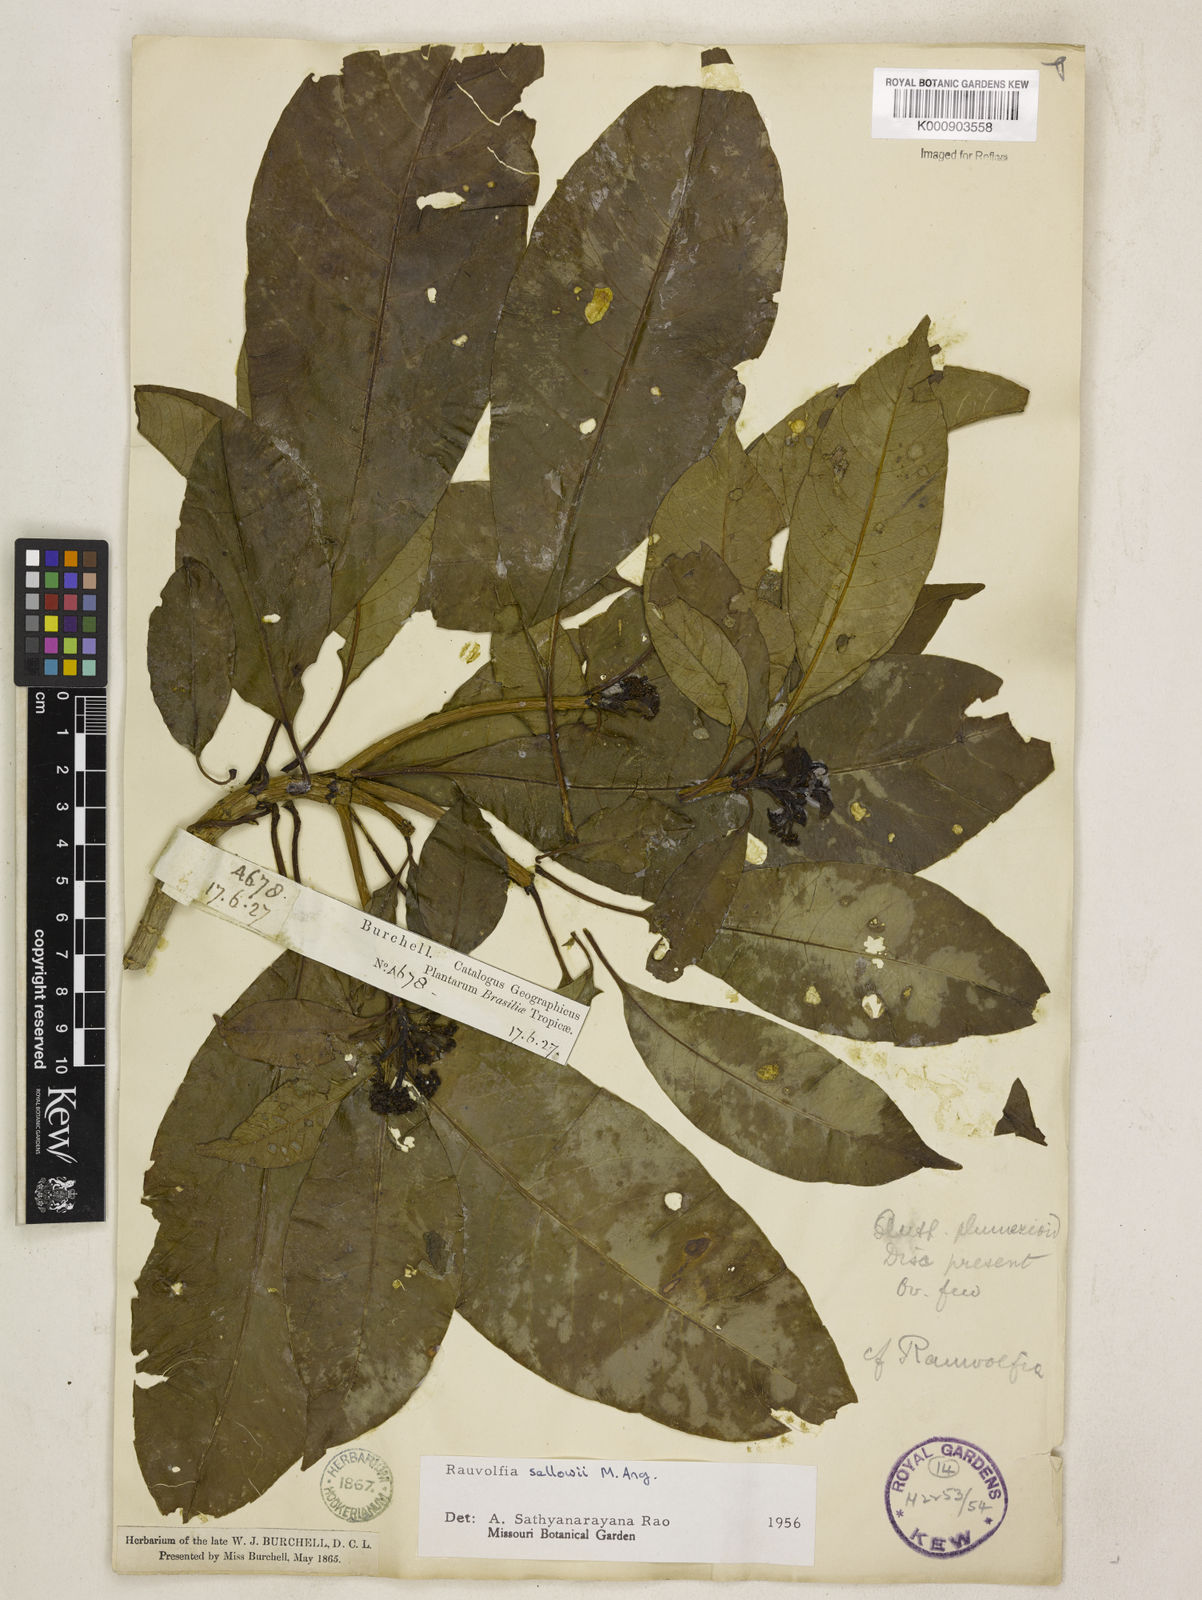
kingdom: Plantae
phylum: Tracheophyta
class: Magnoliopsida
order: Gentianales
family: Apocynaceae
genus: Rauvolfia
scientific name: Rauvolfia
